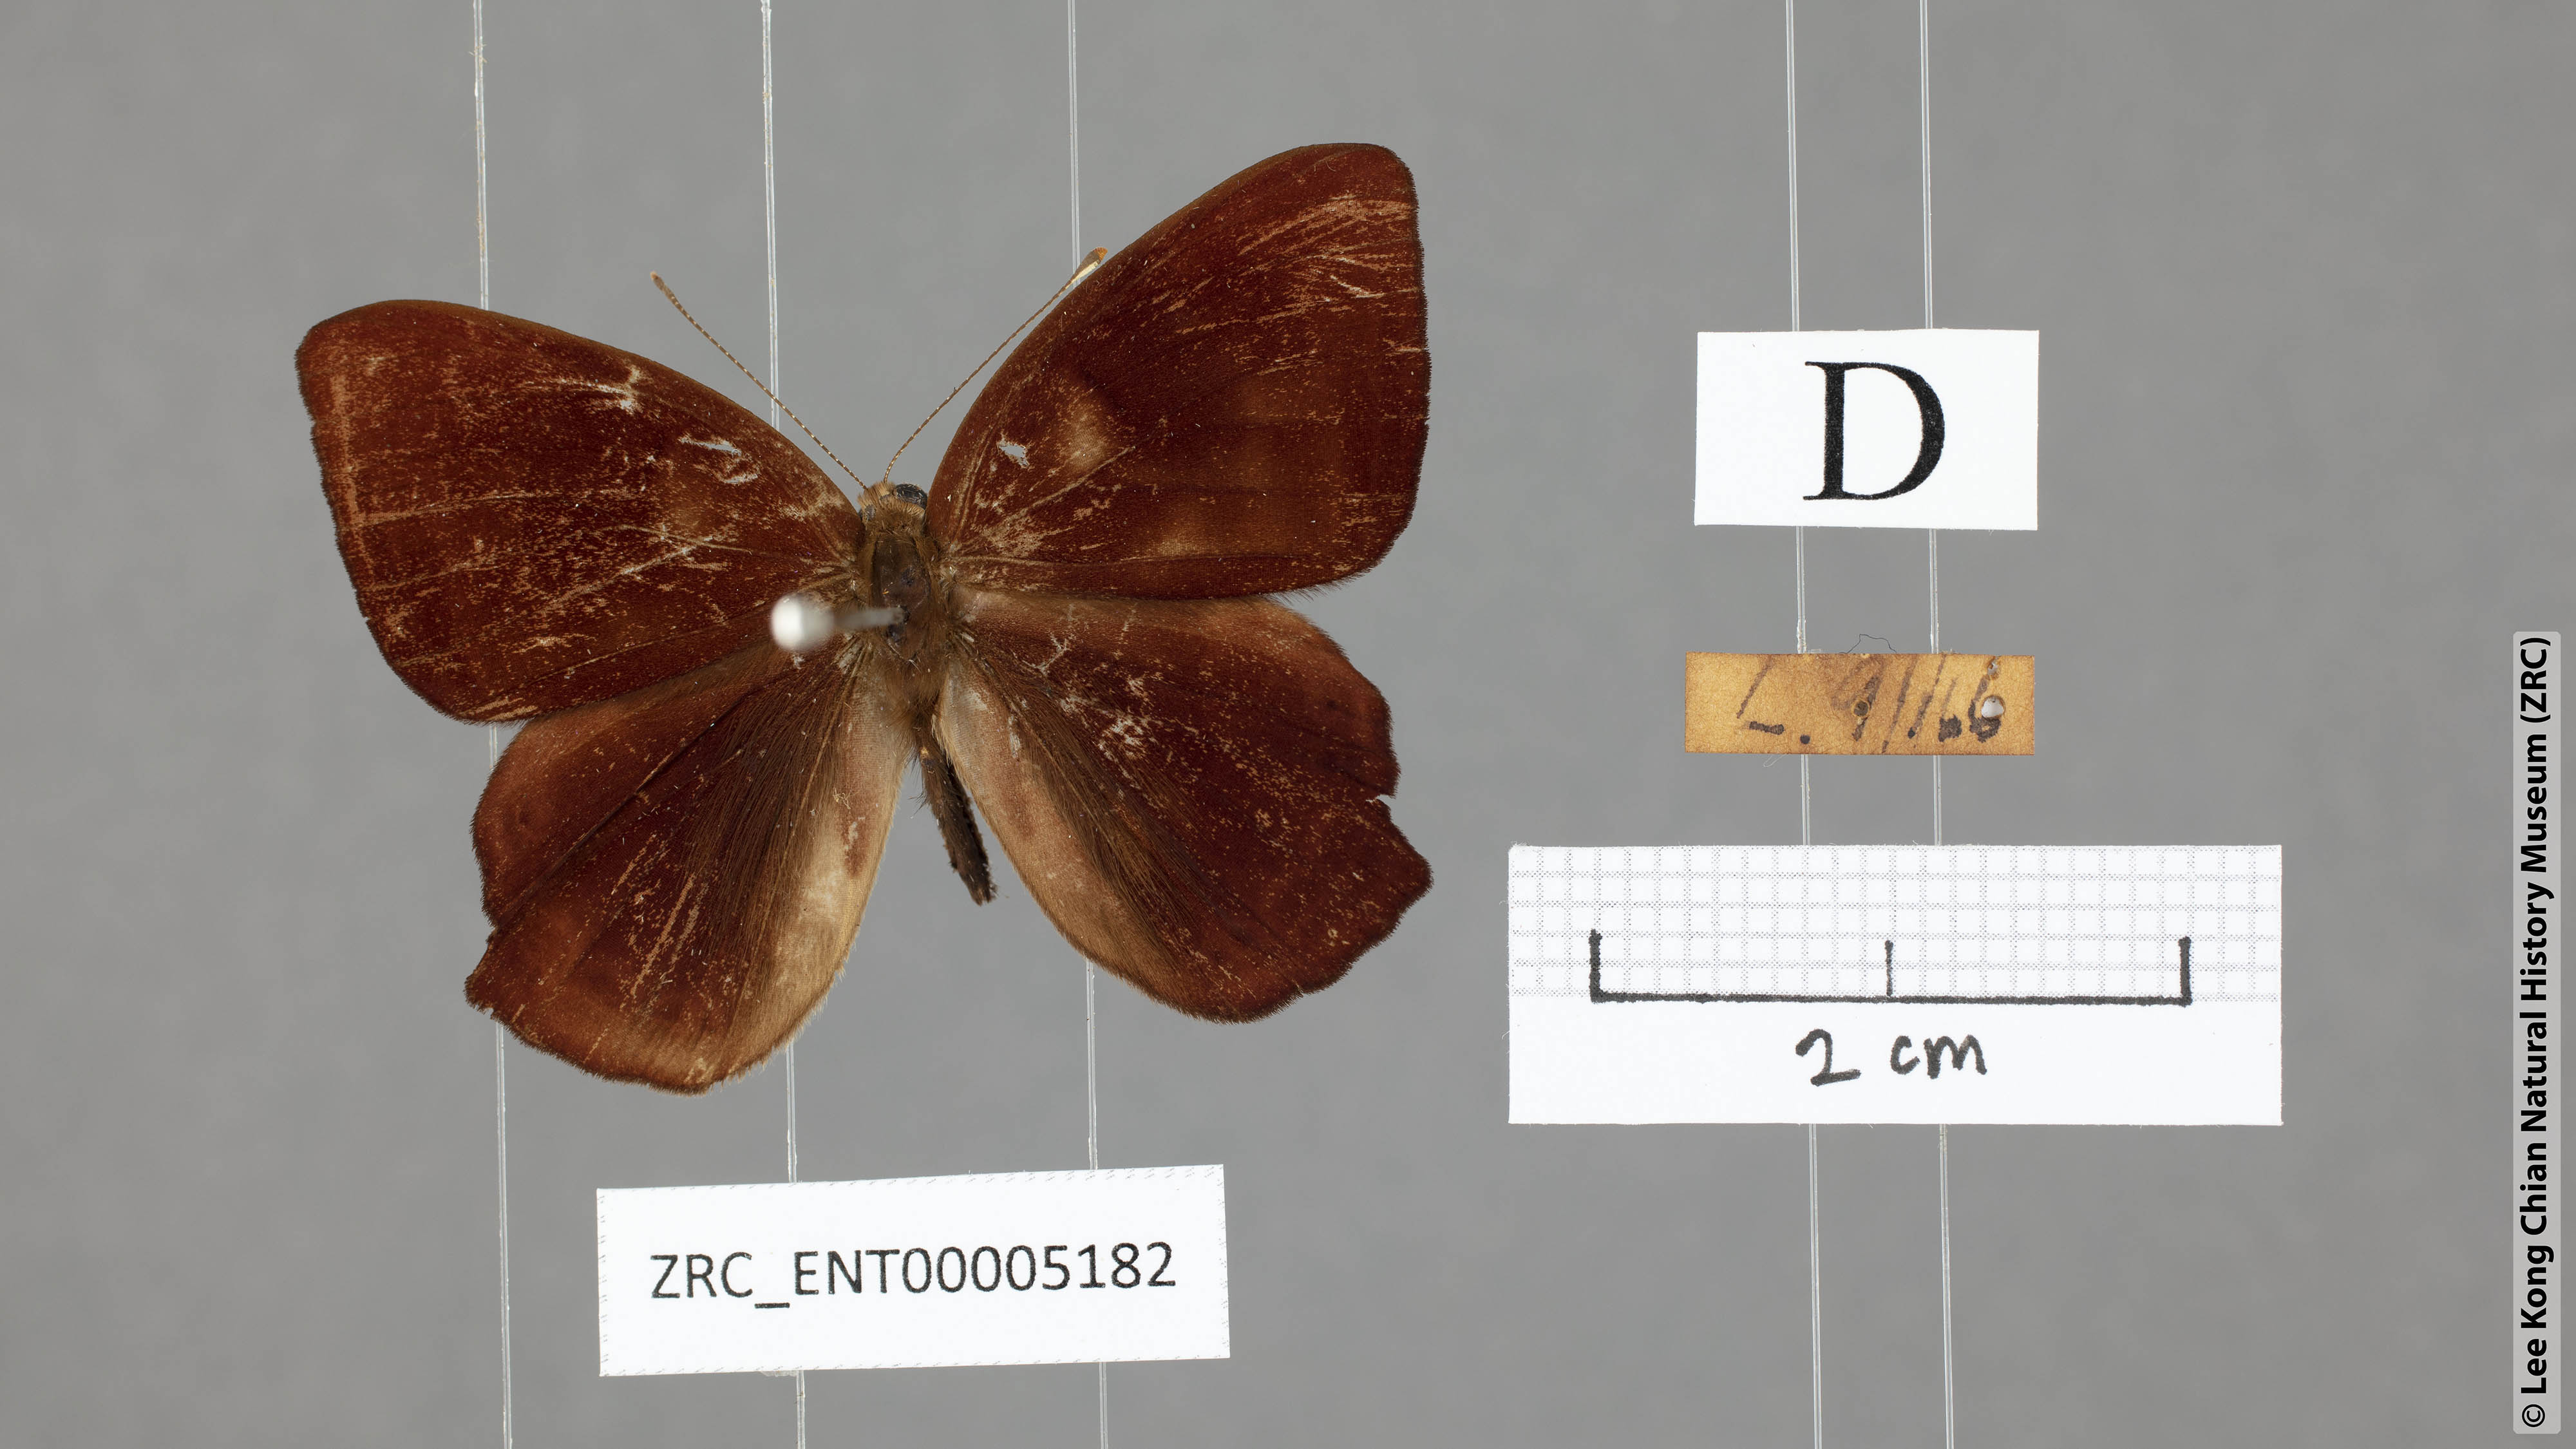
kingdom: Animalia
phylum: Arthropoda
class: Insecta
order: Lepidoptera
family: Lycaenidae
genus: Abisara
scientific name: Abisara saturata
